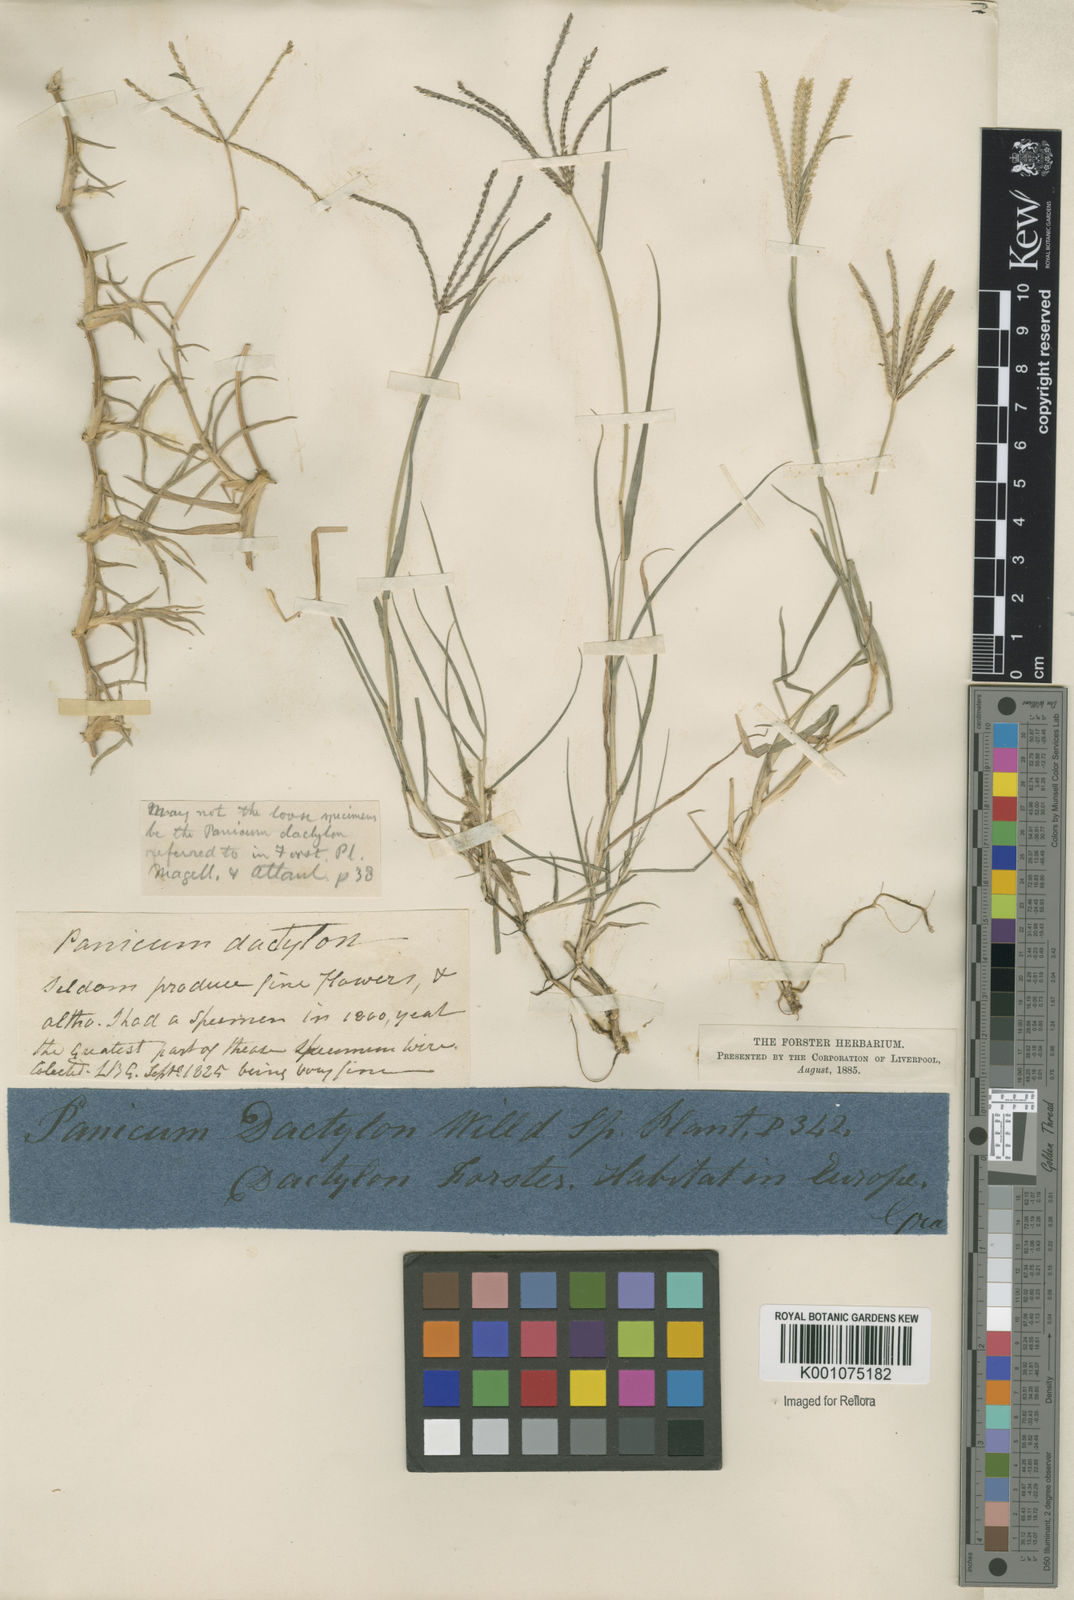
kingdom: Plantae
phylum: Tracheophyta
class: Liliopsida
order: Poales
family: Poaceae
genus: Cynodon
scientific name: Cynodon dactylon
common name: Bermuda grass
